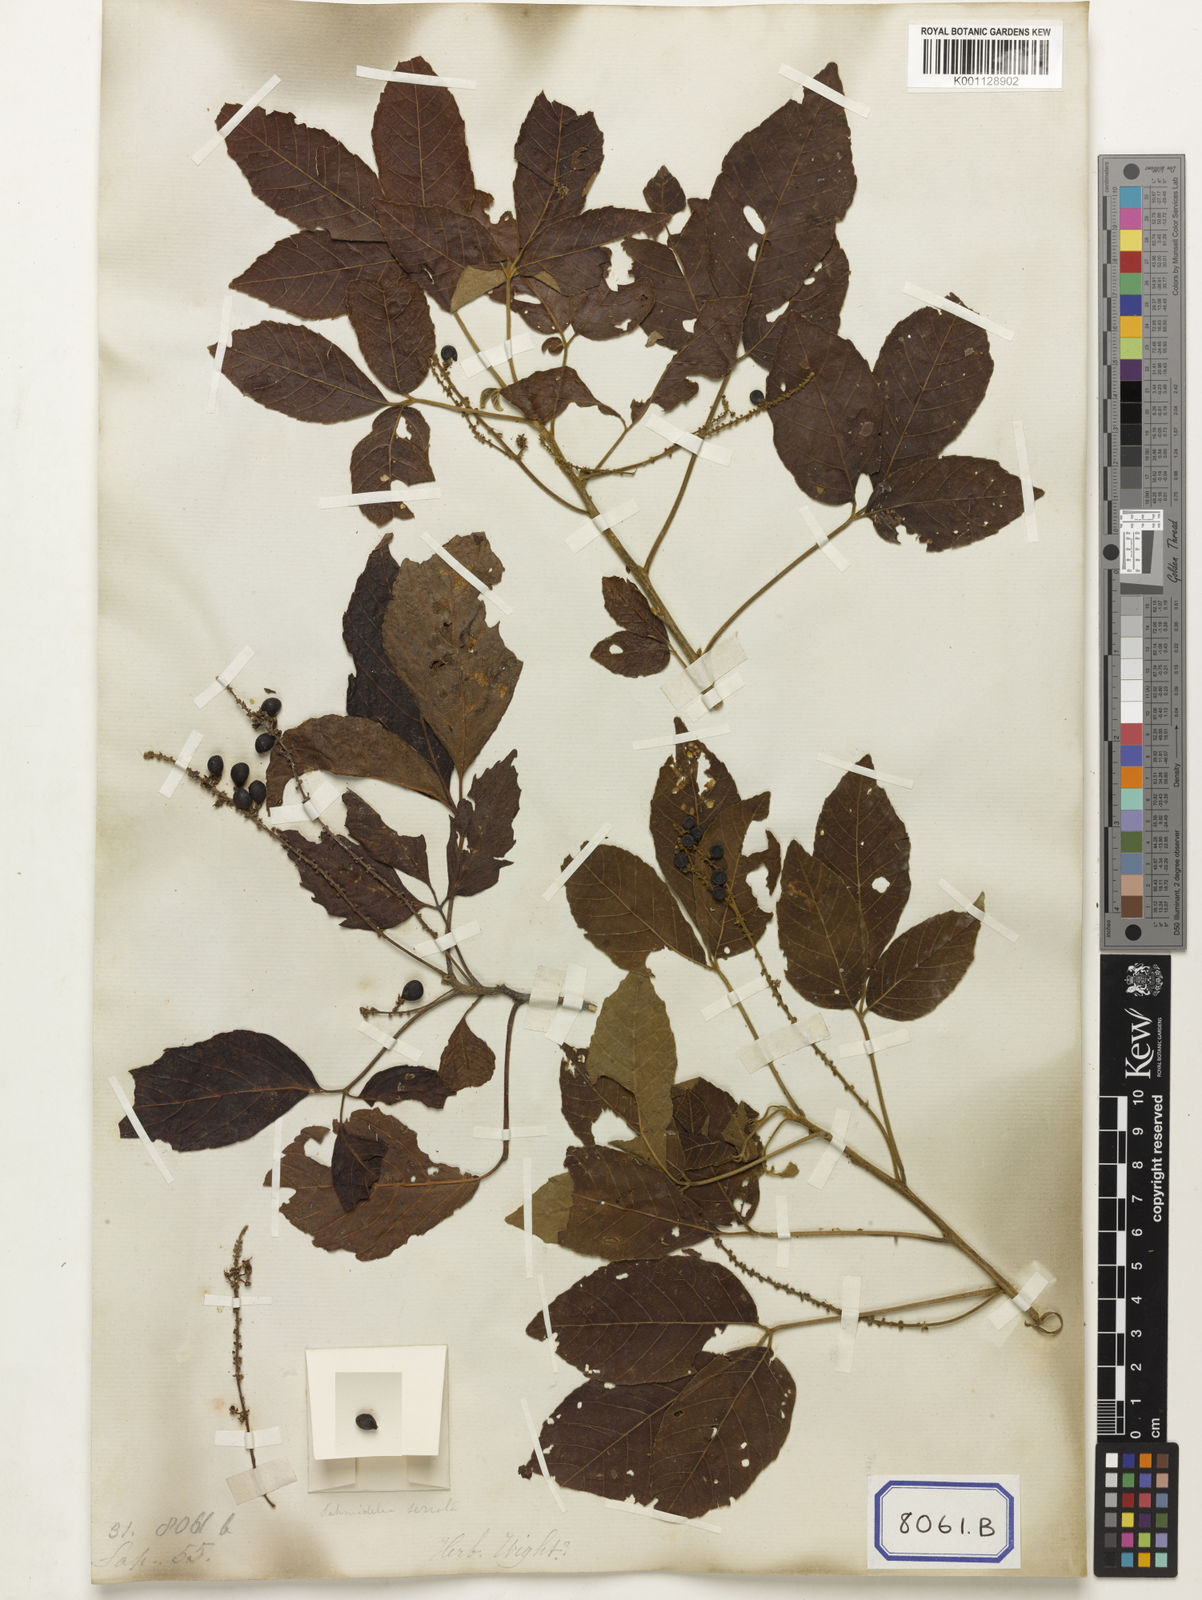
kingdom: Plantae
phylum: Tracheophyta
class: Magnoliopsida
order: Sapindales
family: Sapindaceae
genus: Allophylus
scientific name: Allophylus serratus
